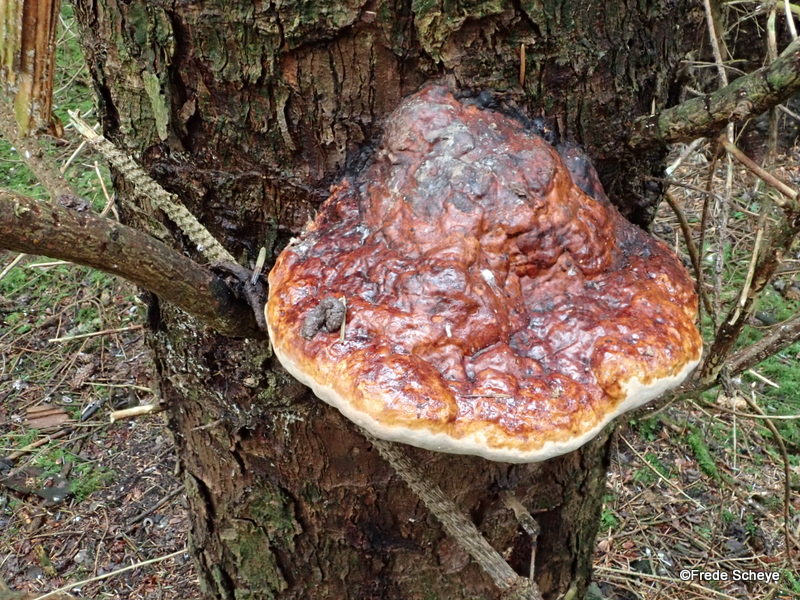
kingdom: Fungi
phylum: Basidiomycota
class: Agaricomycetes
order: Polyporales
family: Fomitopsidaceae
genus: Fomitopsis
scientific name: Fomitopsis pinicola
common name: randbæltet hovporesvamp
